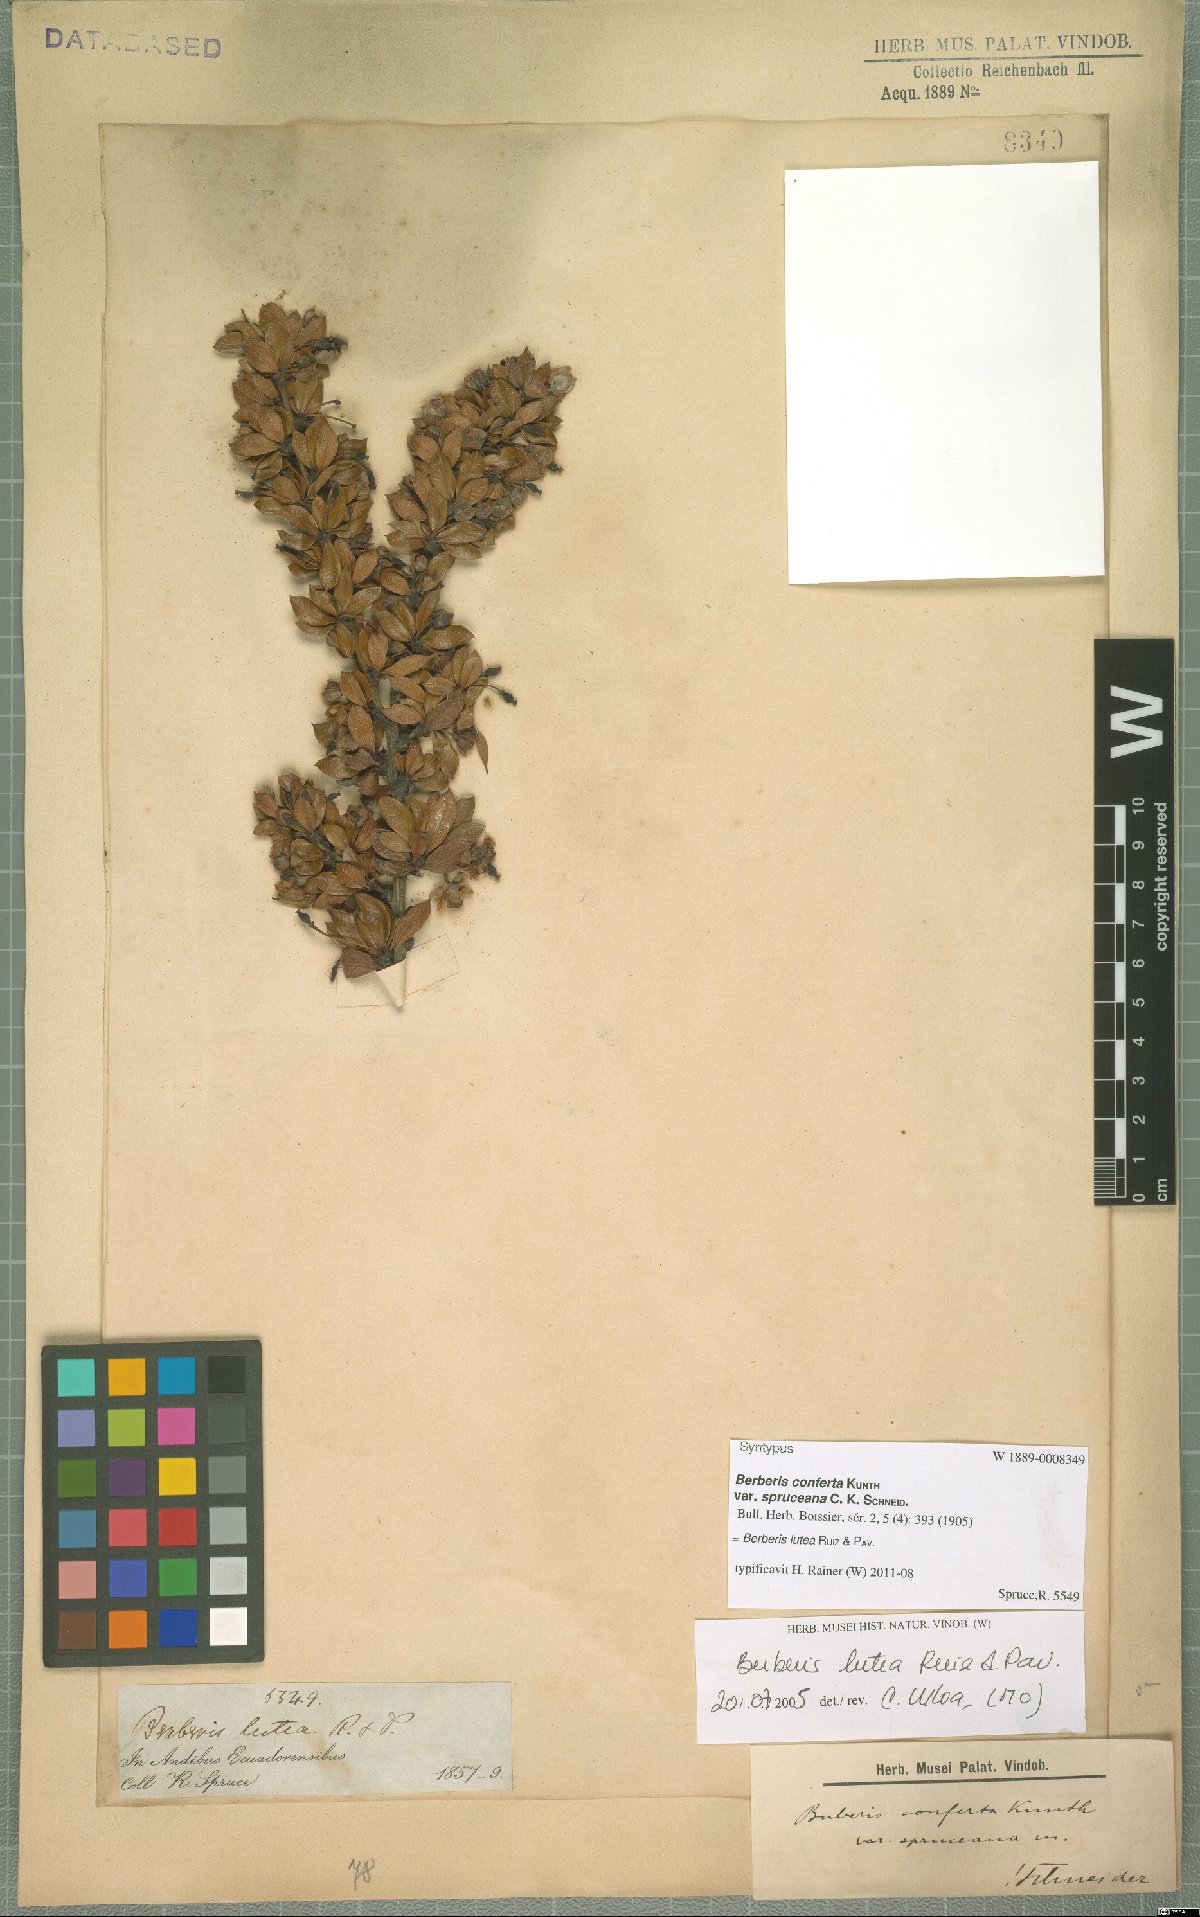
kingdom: Plantae
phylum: Tracheophyta
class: Magnoliopsida
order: Ranunculales
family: Berberidaceae
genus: Berberis
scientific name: Berberis lutea
